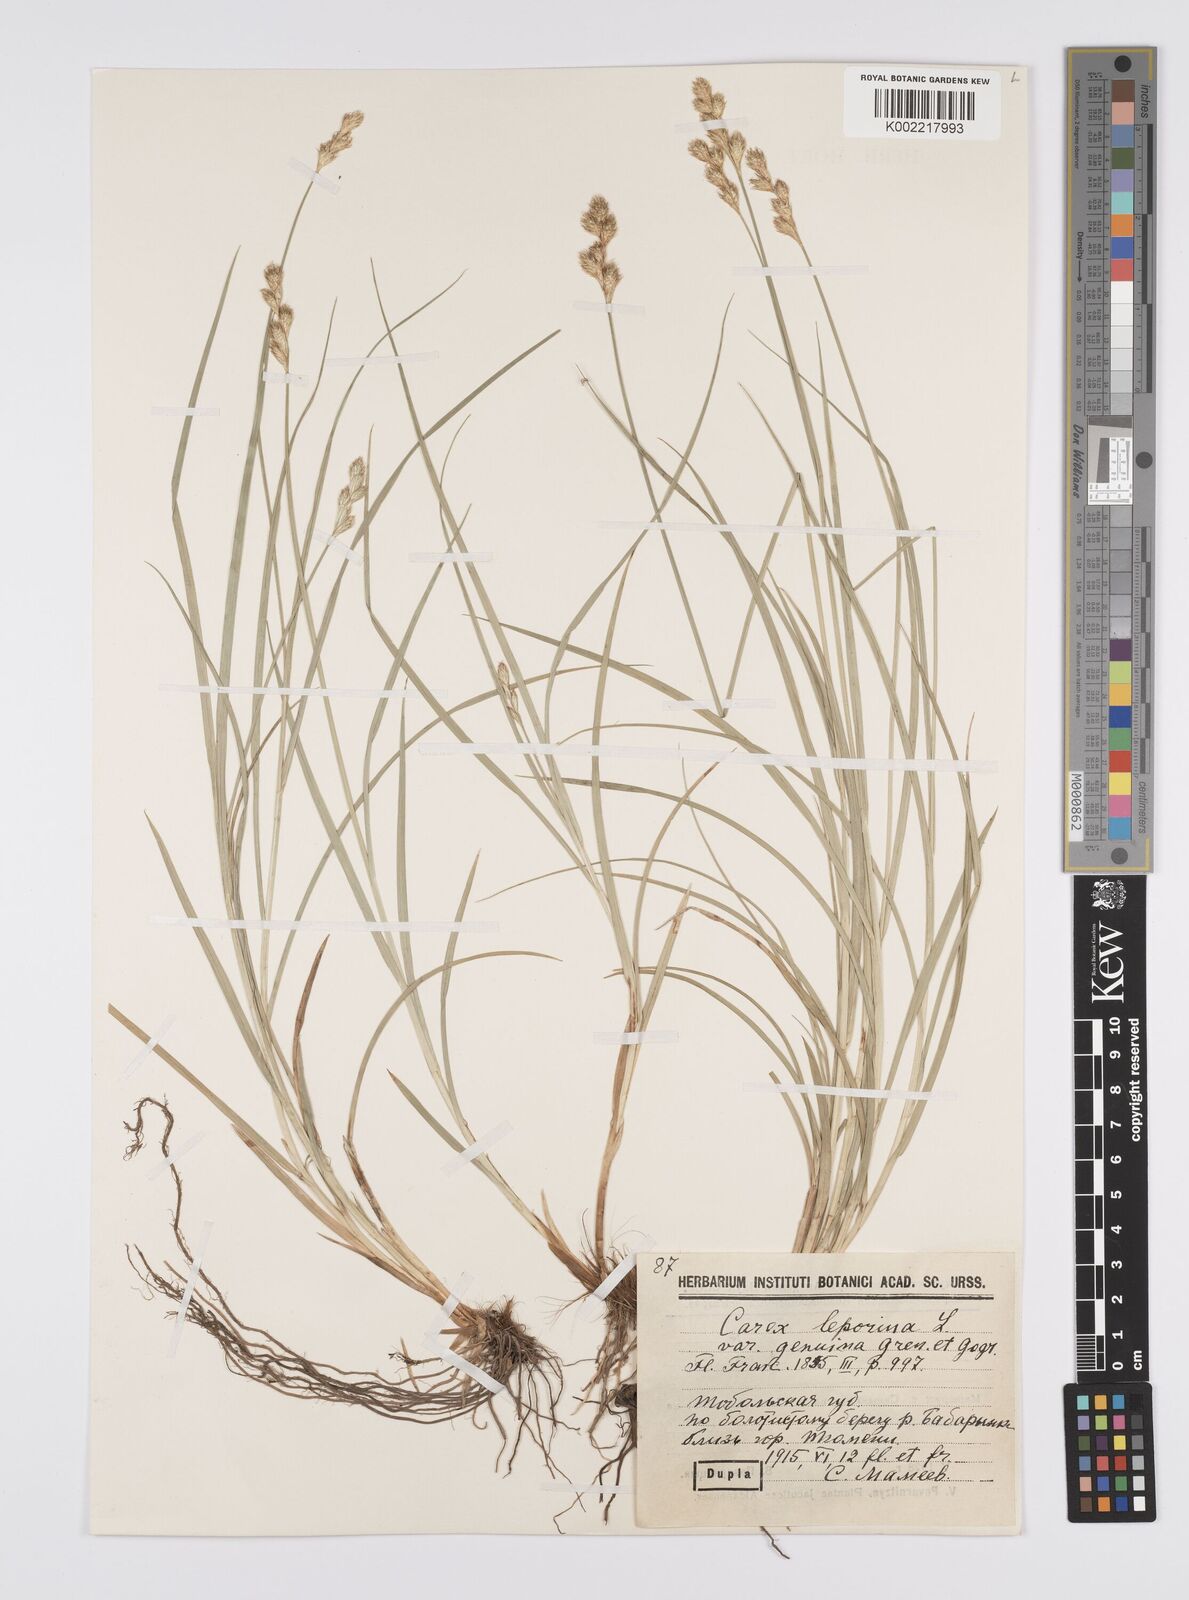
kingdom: Plantae
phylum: Tracheophyta
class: Liliopsida
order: Poales
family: Cyperaceae
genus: Carex
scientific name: Carex leporina
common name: Oval sedge
